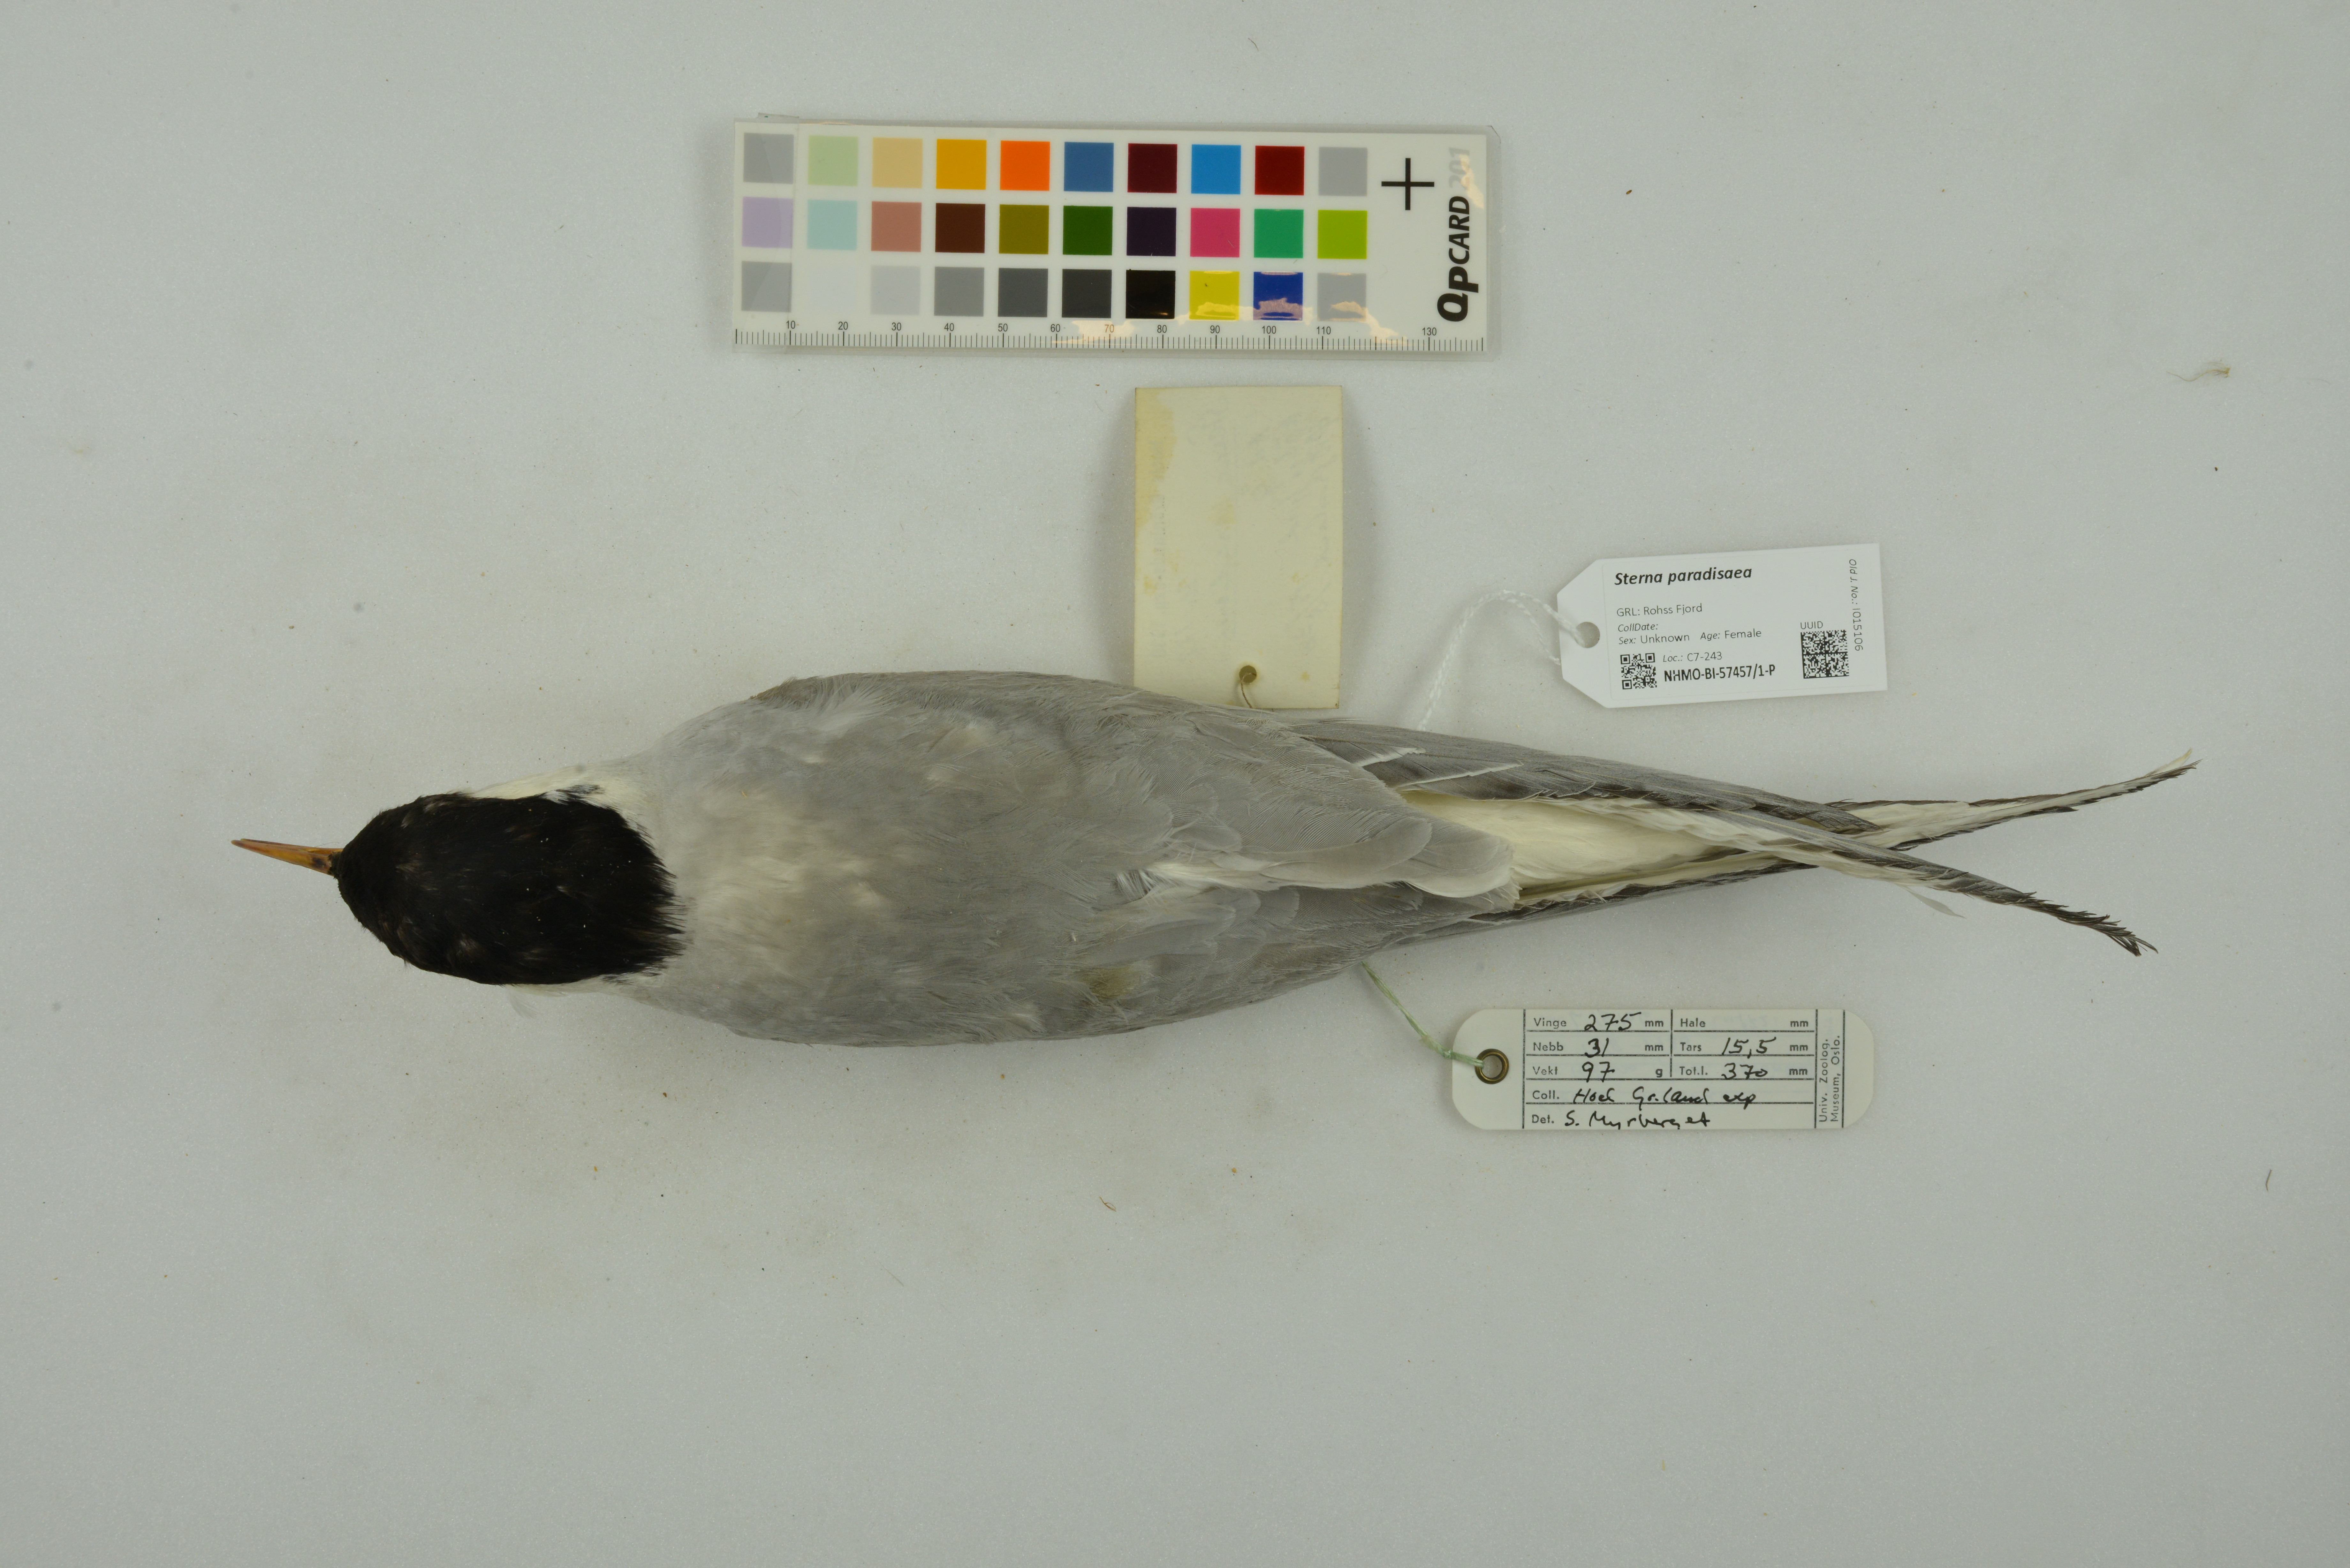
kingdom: Animalia
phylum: Chordata
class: Aves
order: Charadriiformes
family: Laridae
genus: Sterna
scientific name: Sterna paradisaea
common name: Arctic tern
